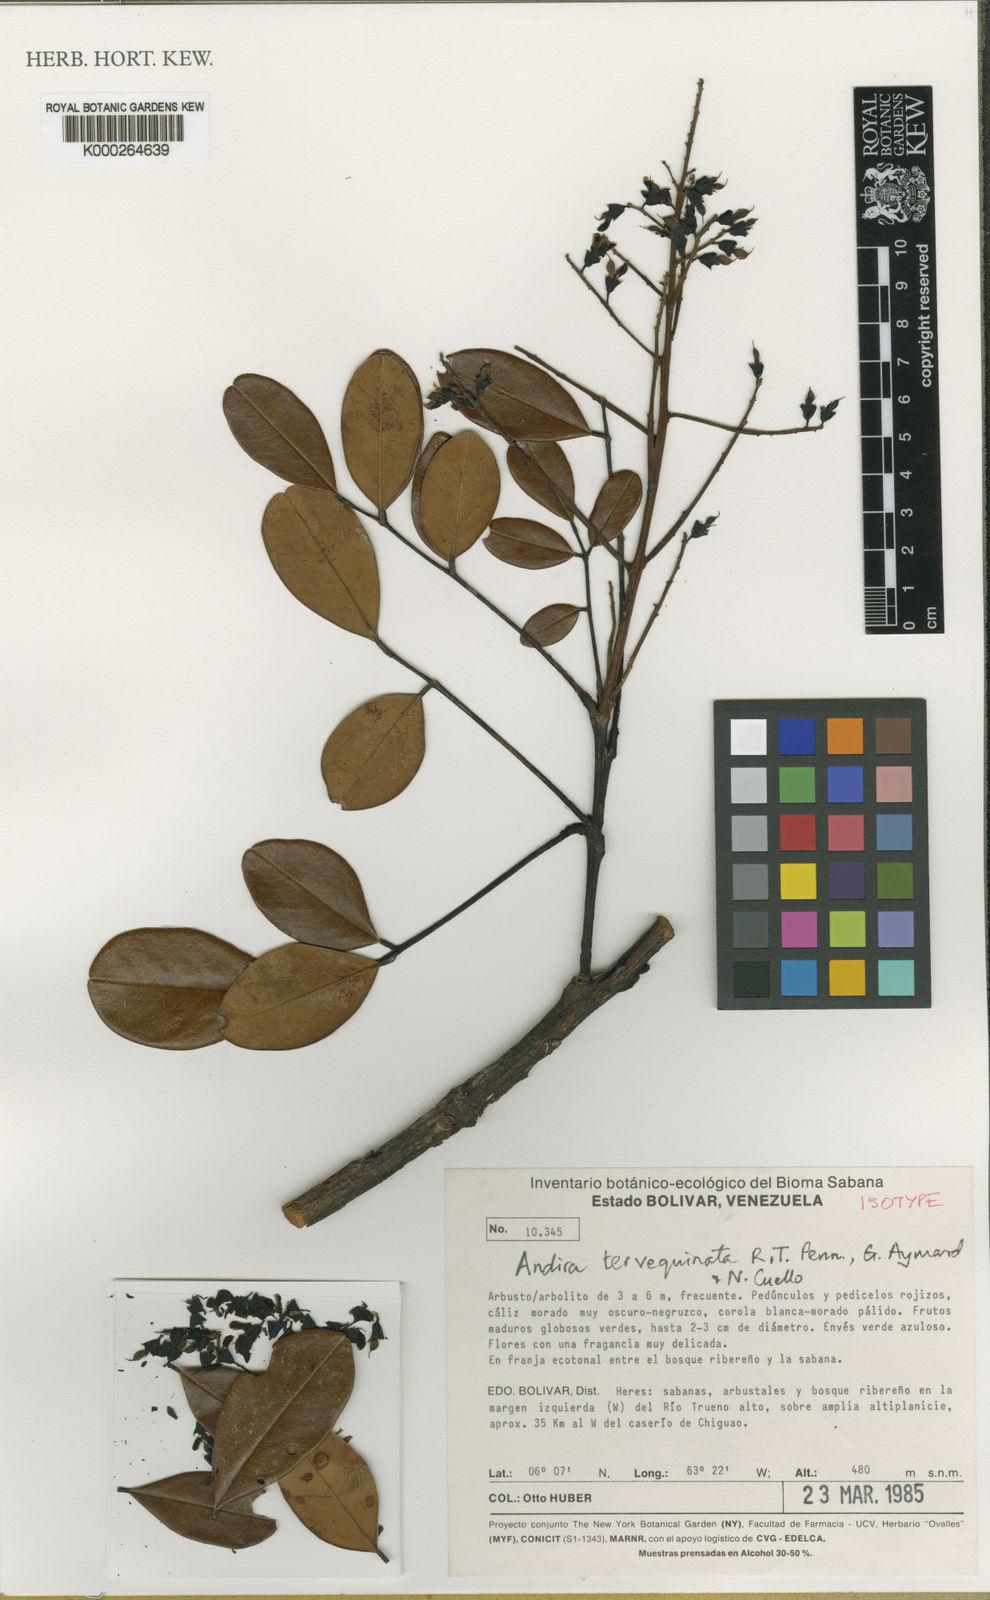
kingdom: Plantae
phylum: Tracheophyta
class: Magnoliopsida
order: Fabales
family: Fabaceae
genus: Andira
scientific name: Andira
